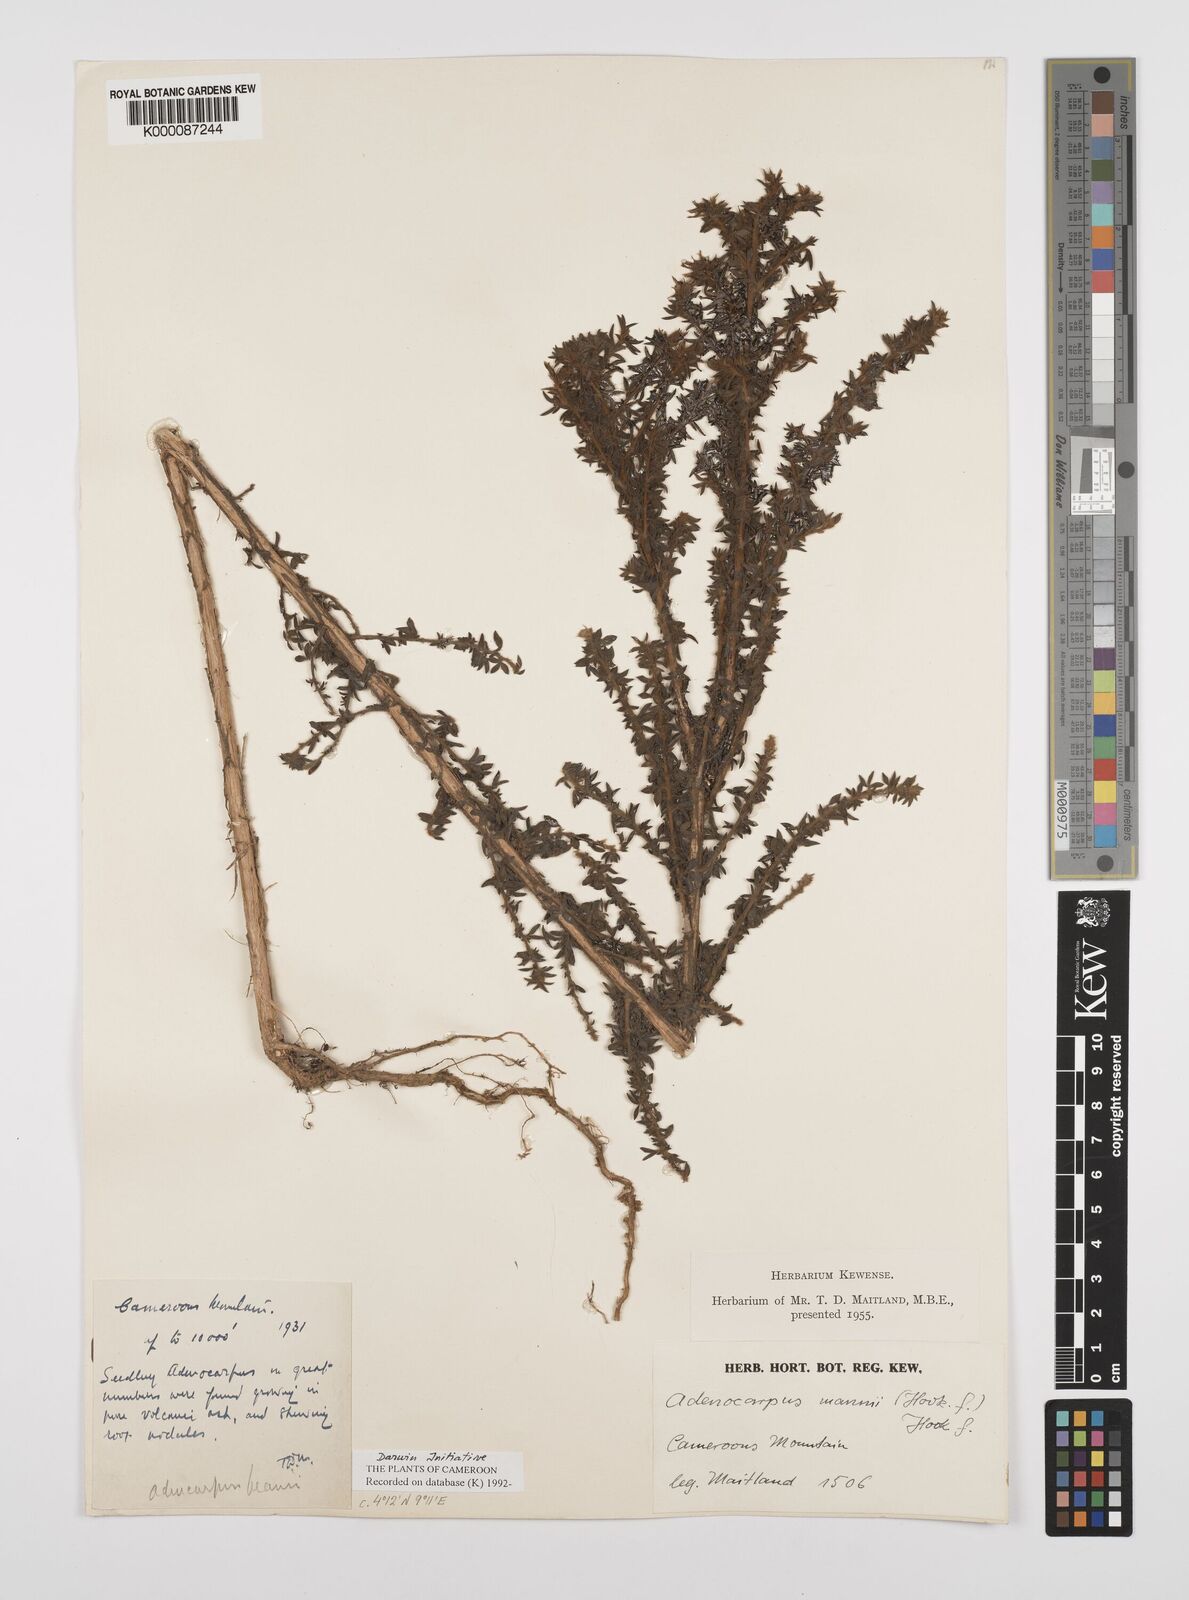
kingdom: Plantae
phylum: Tracheophyta
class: Magnoliopsida
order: Fabales
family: Fabaceae
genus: Adenocarpus
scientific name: Adenocarpus mannii
